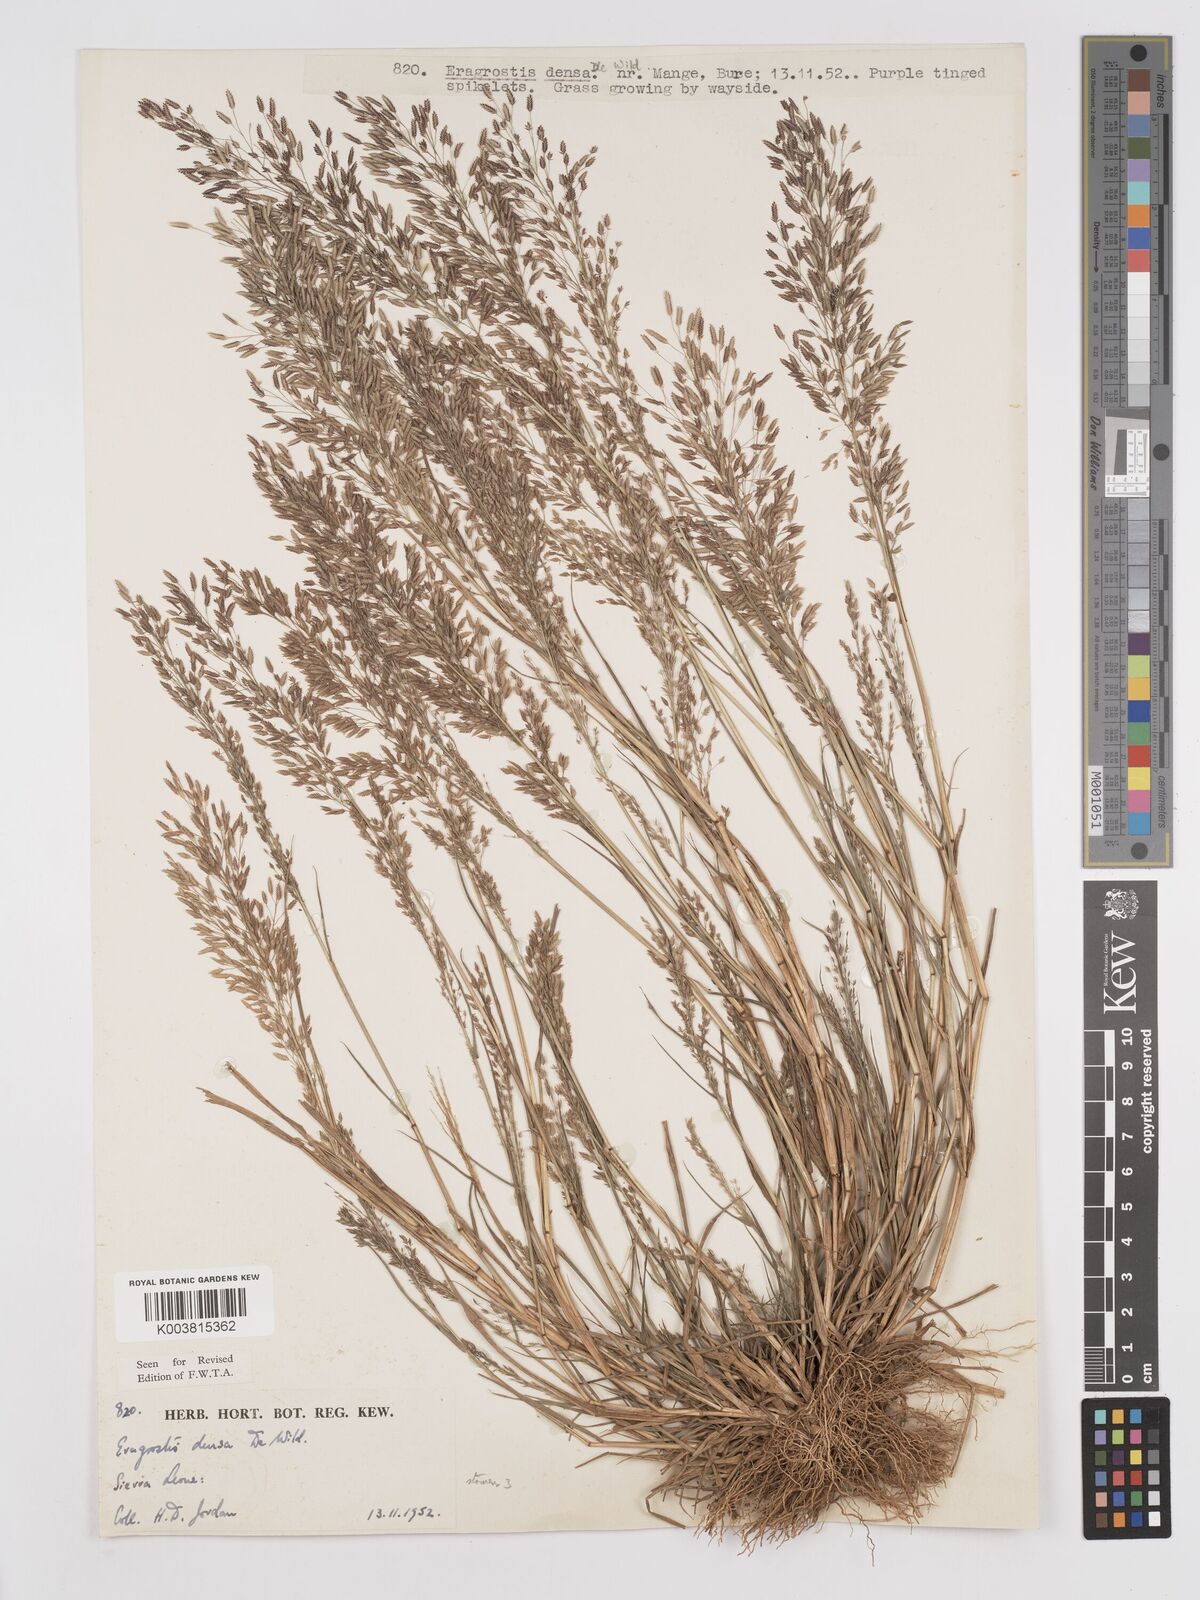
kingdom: Plantae
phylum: Tracheophyta
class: Liliopsida
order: Poales
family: Poaceae
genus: Eragrostis
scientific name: Eragrostis welwitschii
